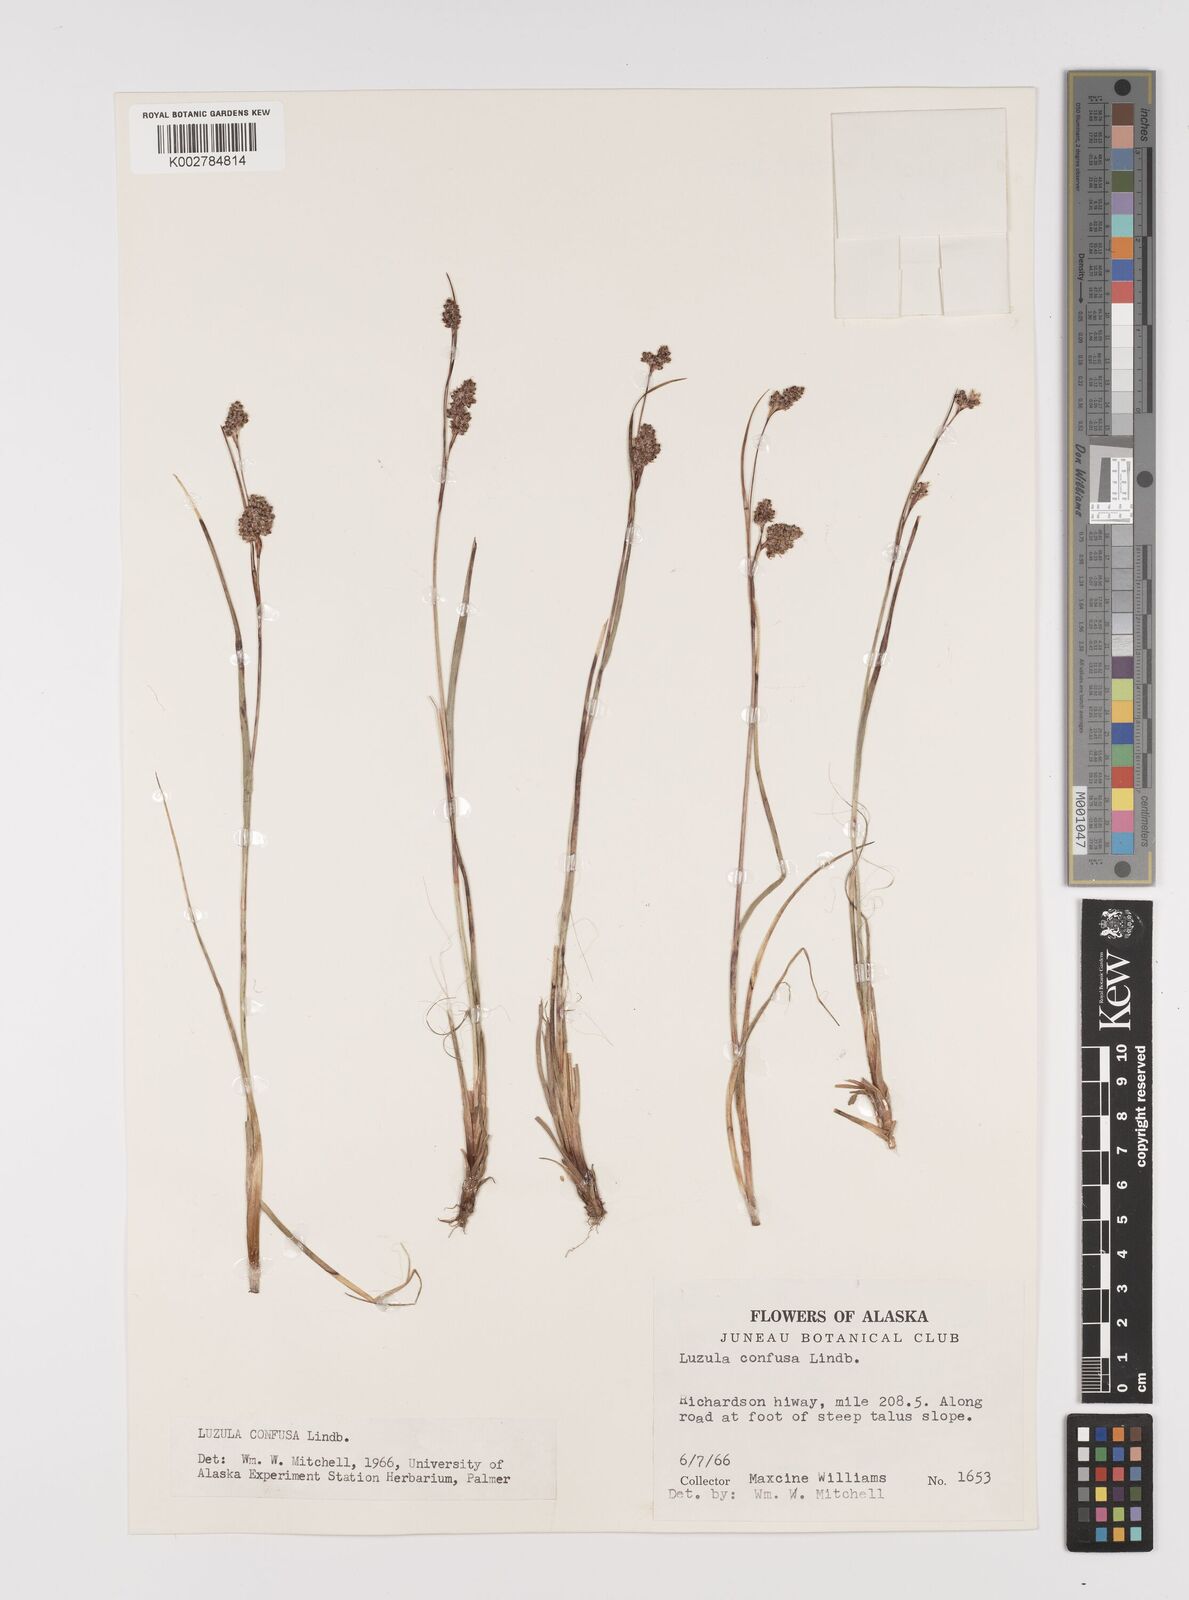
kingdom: Plantae
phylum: Tracheophyta
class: Liliopsida
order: Poales
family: Juncaceae
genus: Luzula
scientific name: Luzula confusa
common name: Northern wood rush
